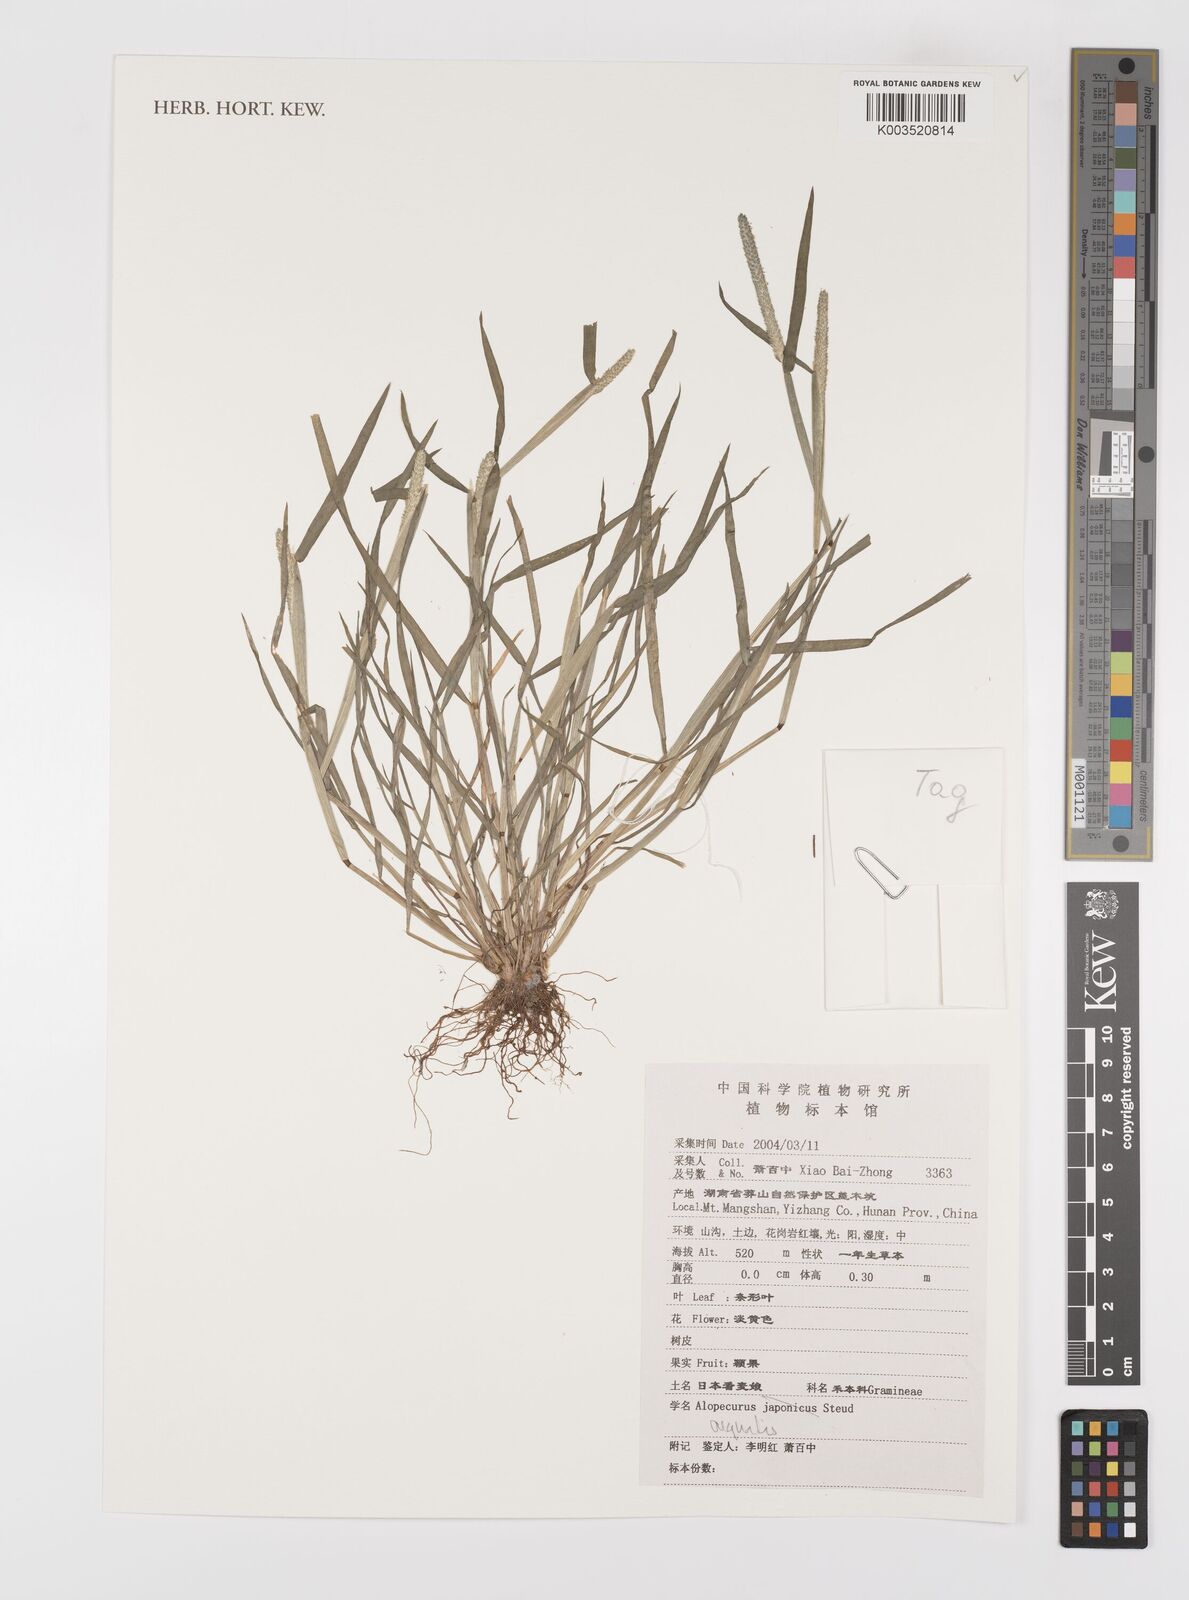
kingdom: Plantae
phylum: Tracheophyta
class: Liliopsida
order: Poales
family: Poaceae
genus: Alopecurus
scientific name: Alopecurus aequalis
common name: Orange foxtail
